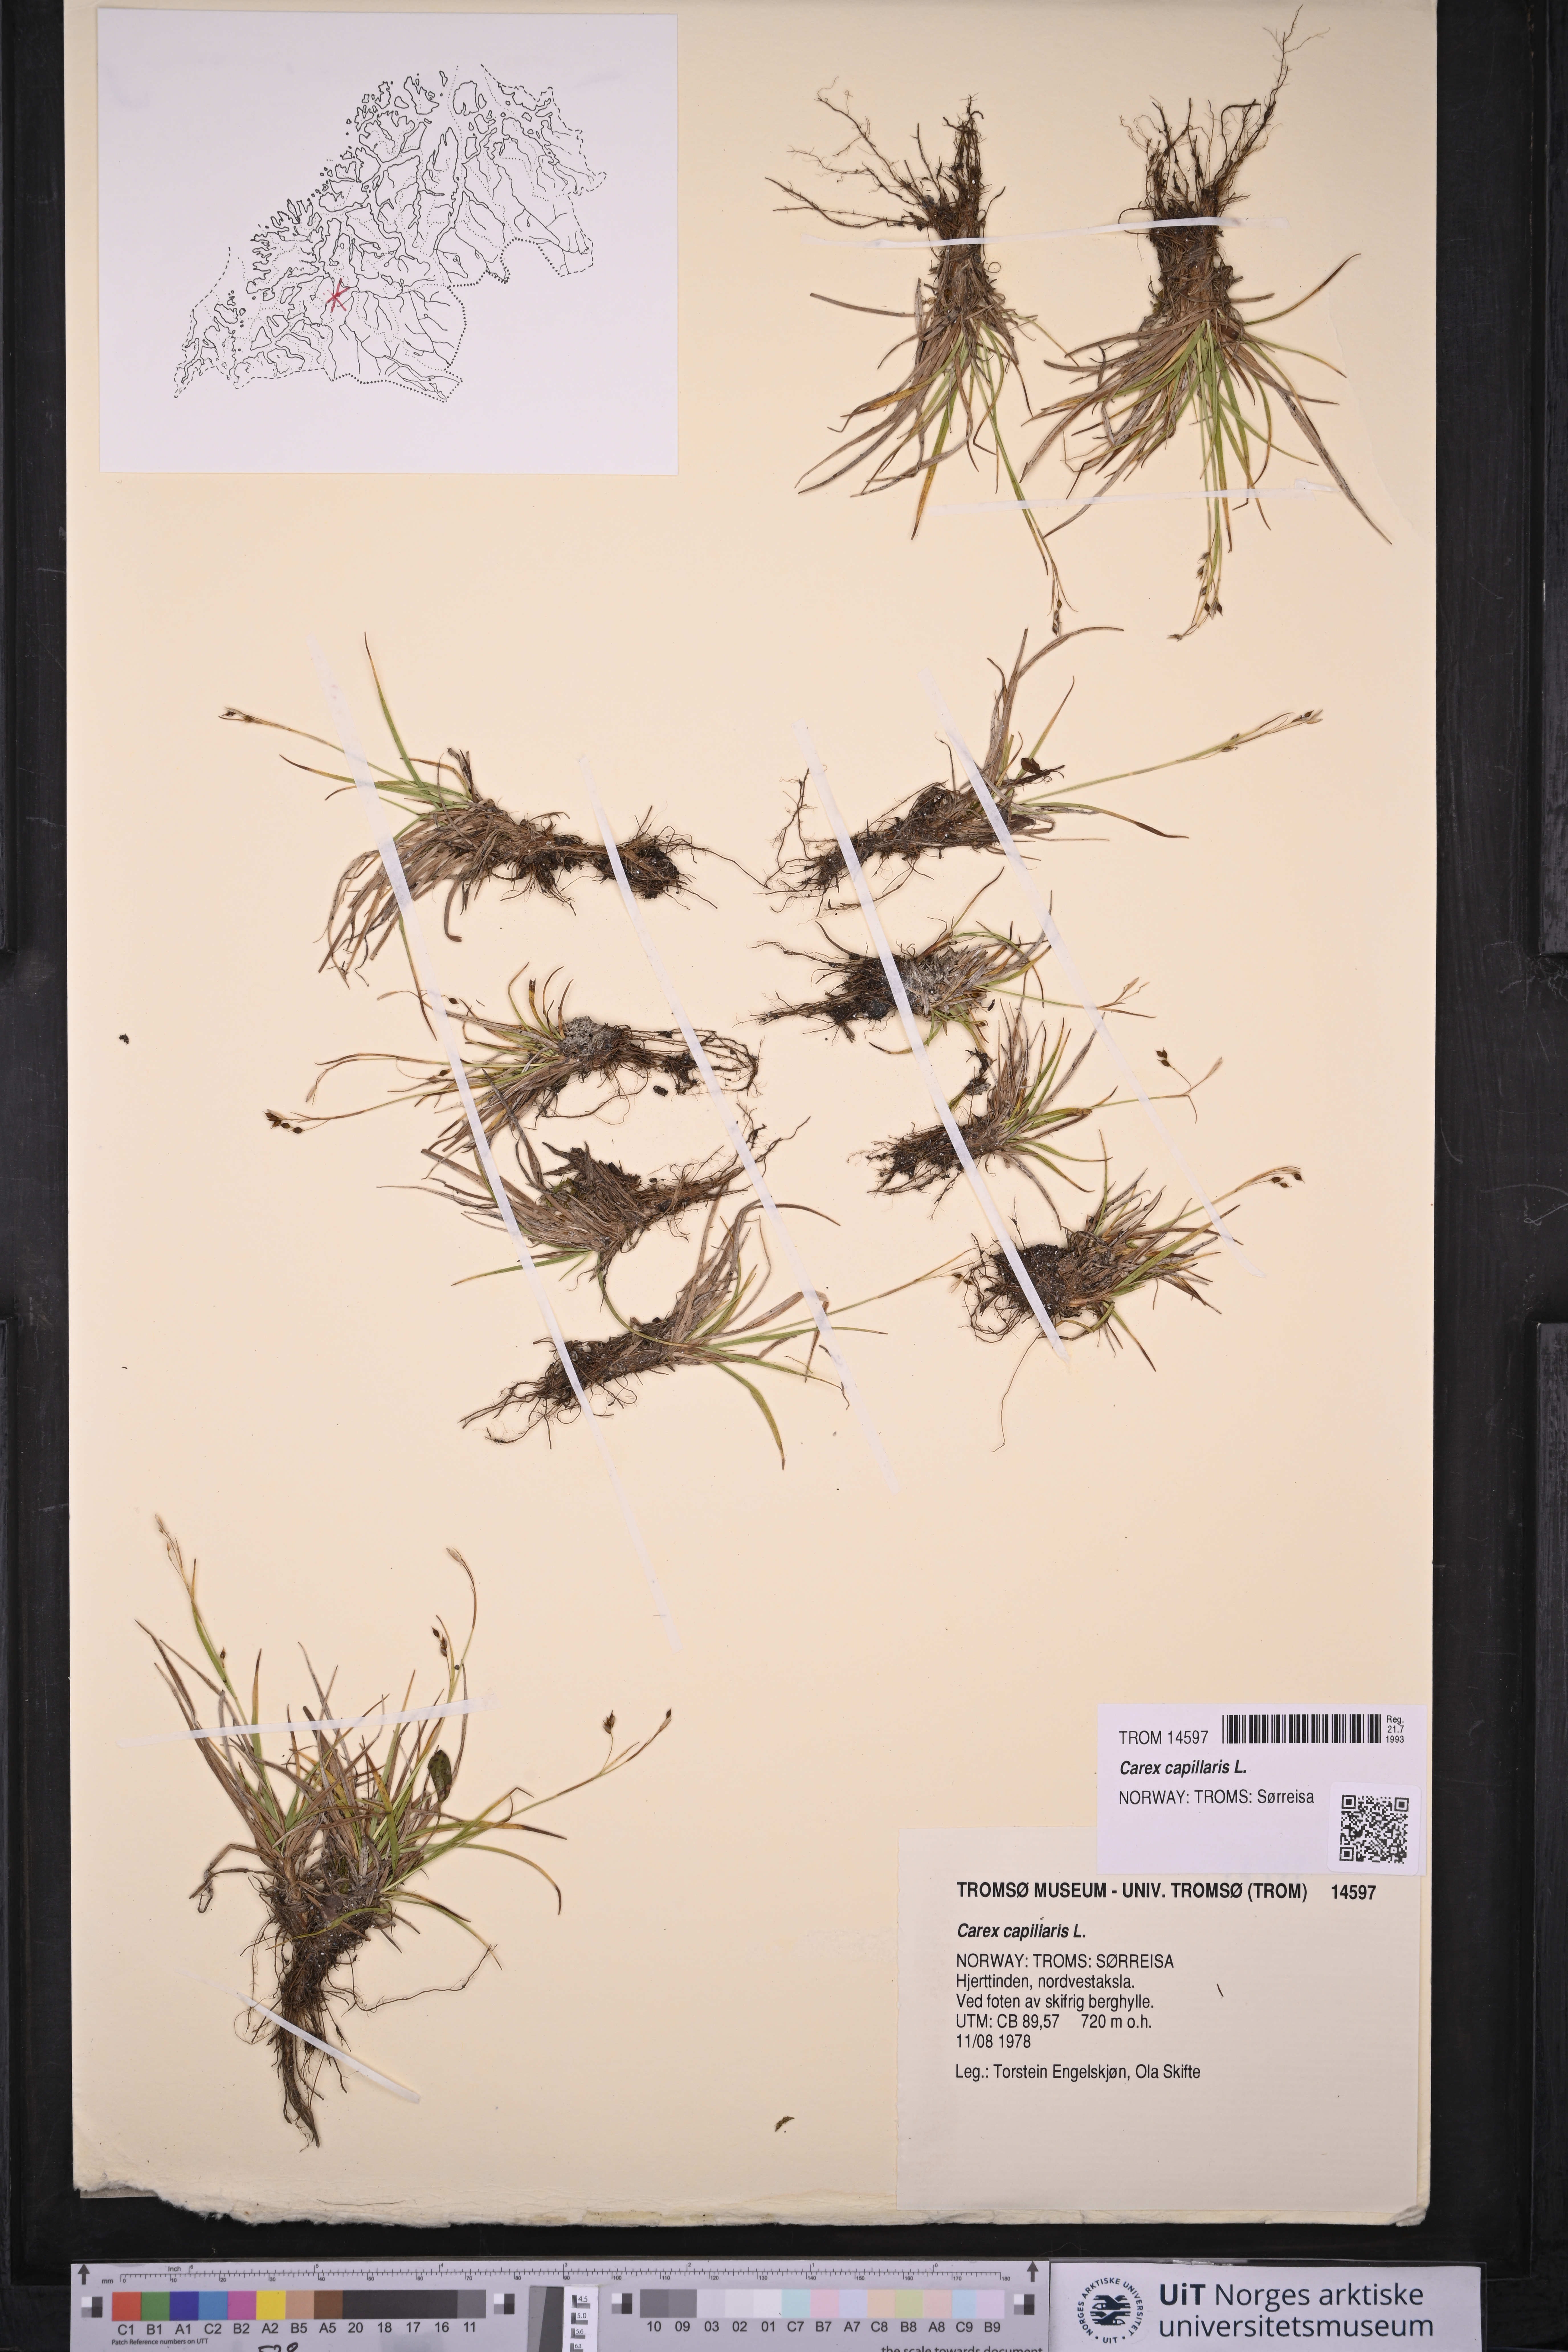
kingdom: Plantae
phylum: Tracheophyta
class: Liliopsida
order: Poales
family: Cyperaceae
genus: Carex
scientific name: Carex capillaris
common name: Hair sedge
